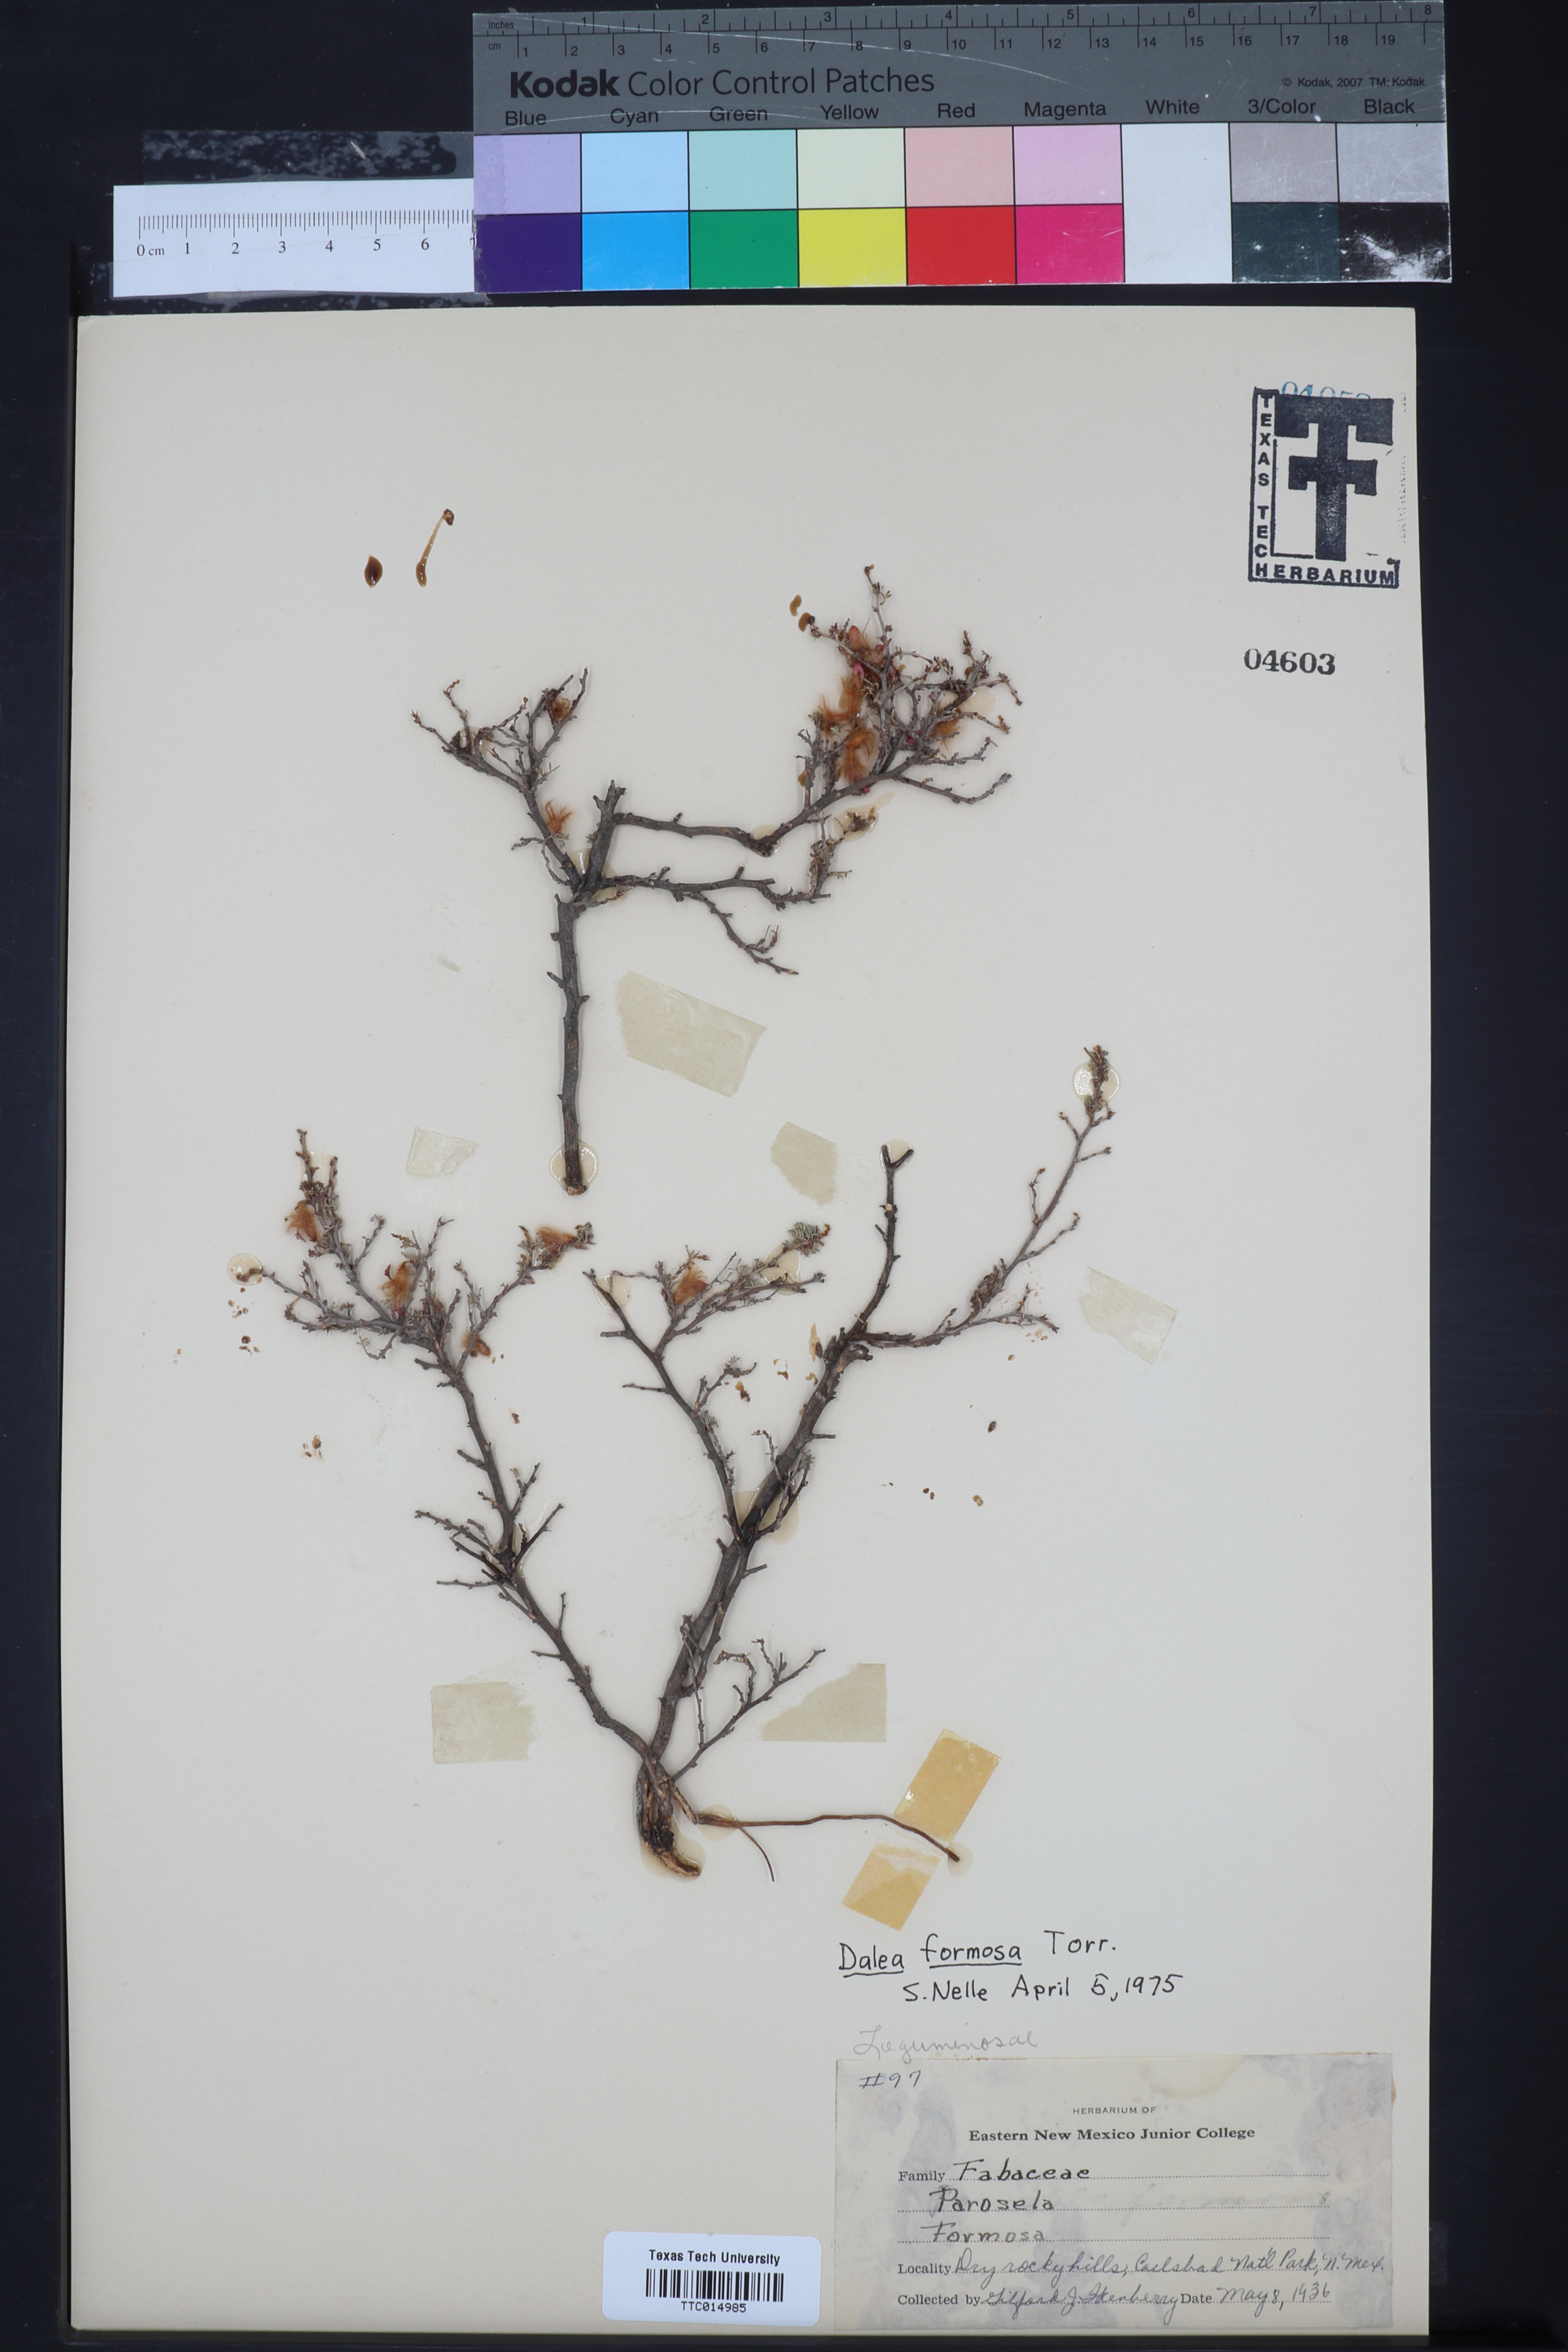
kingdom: Plantae
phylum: Tracheophyta
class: Magnoliopsida
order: Fabales
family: Fabaceae
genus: Dalea
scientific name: Dalea formosa
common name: Feather-plume dalea
